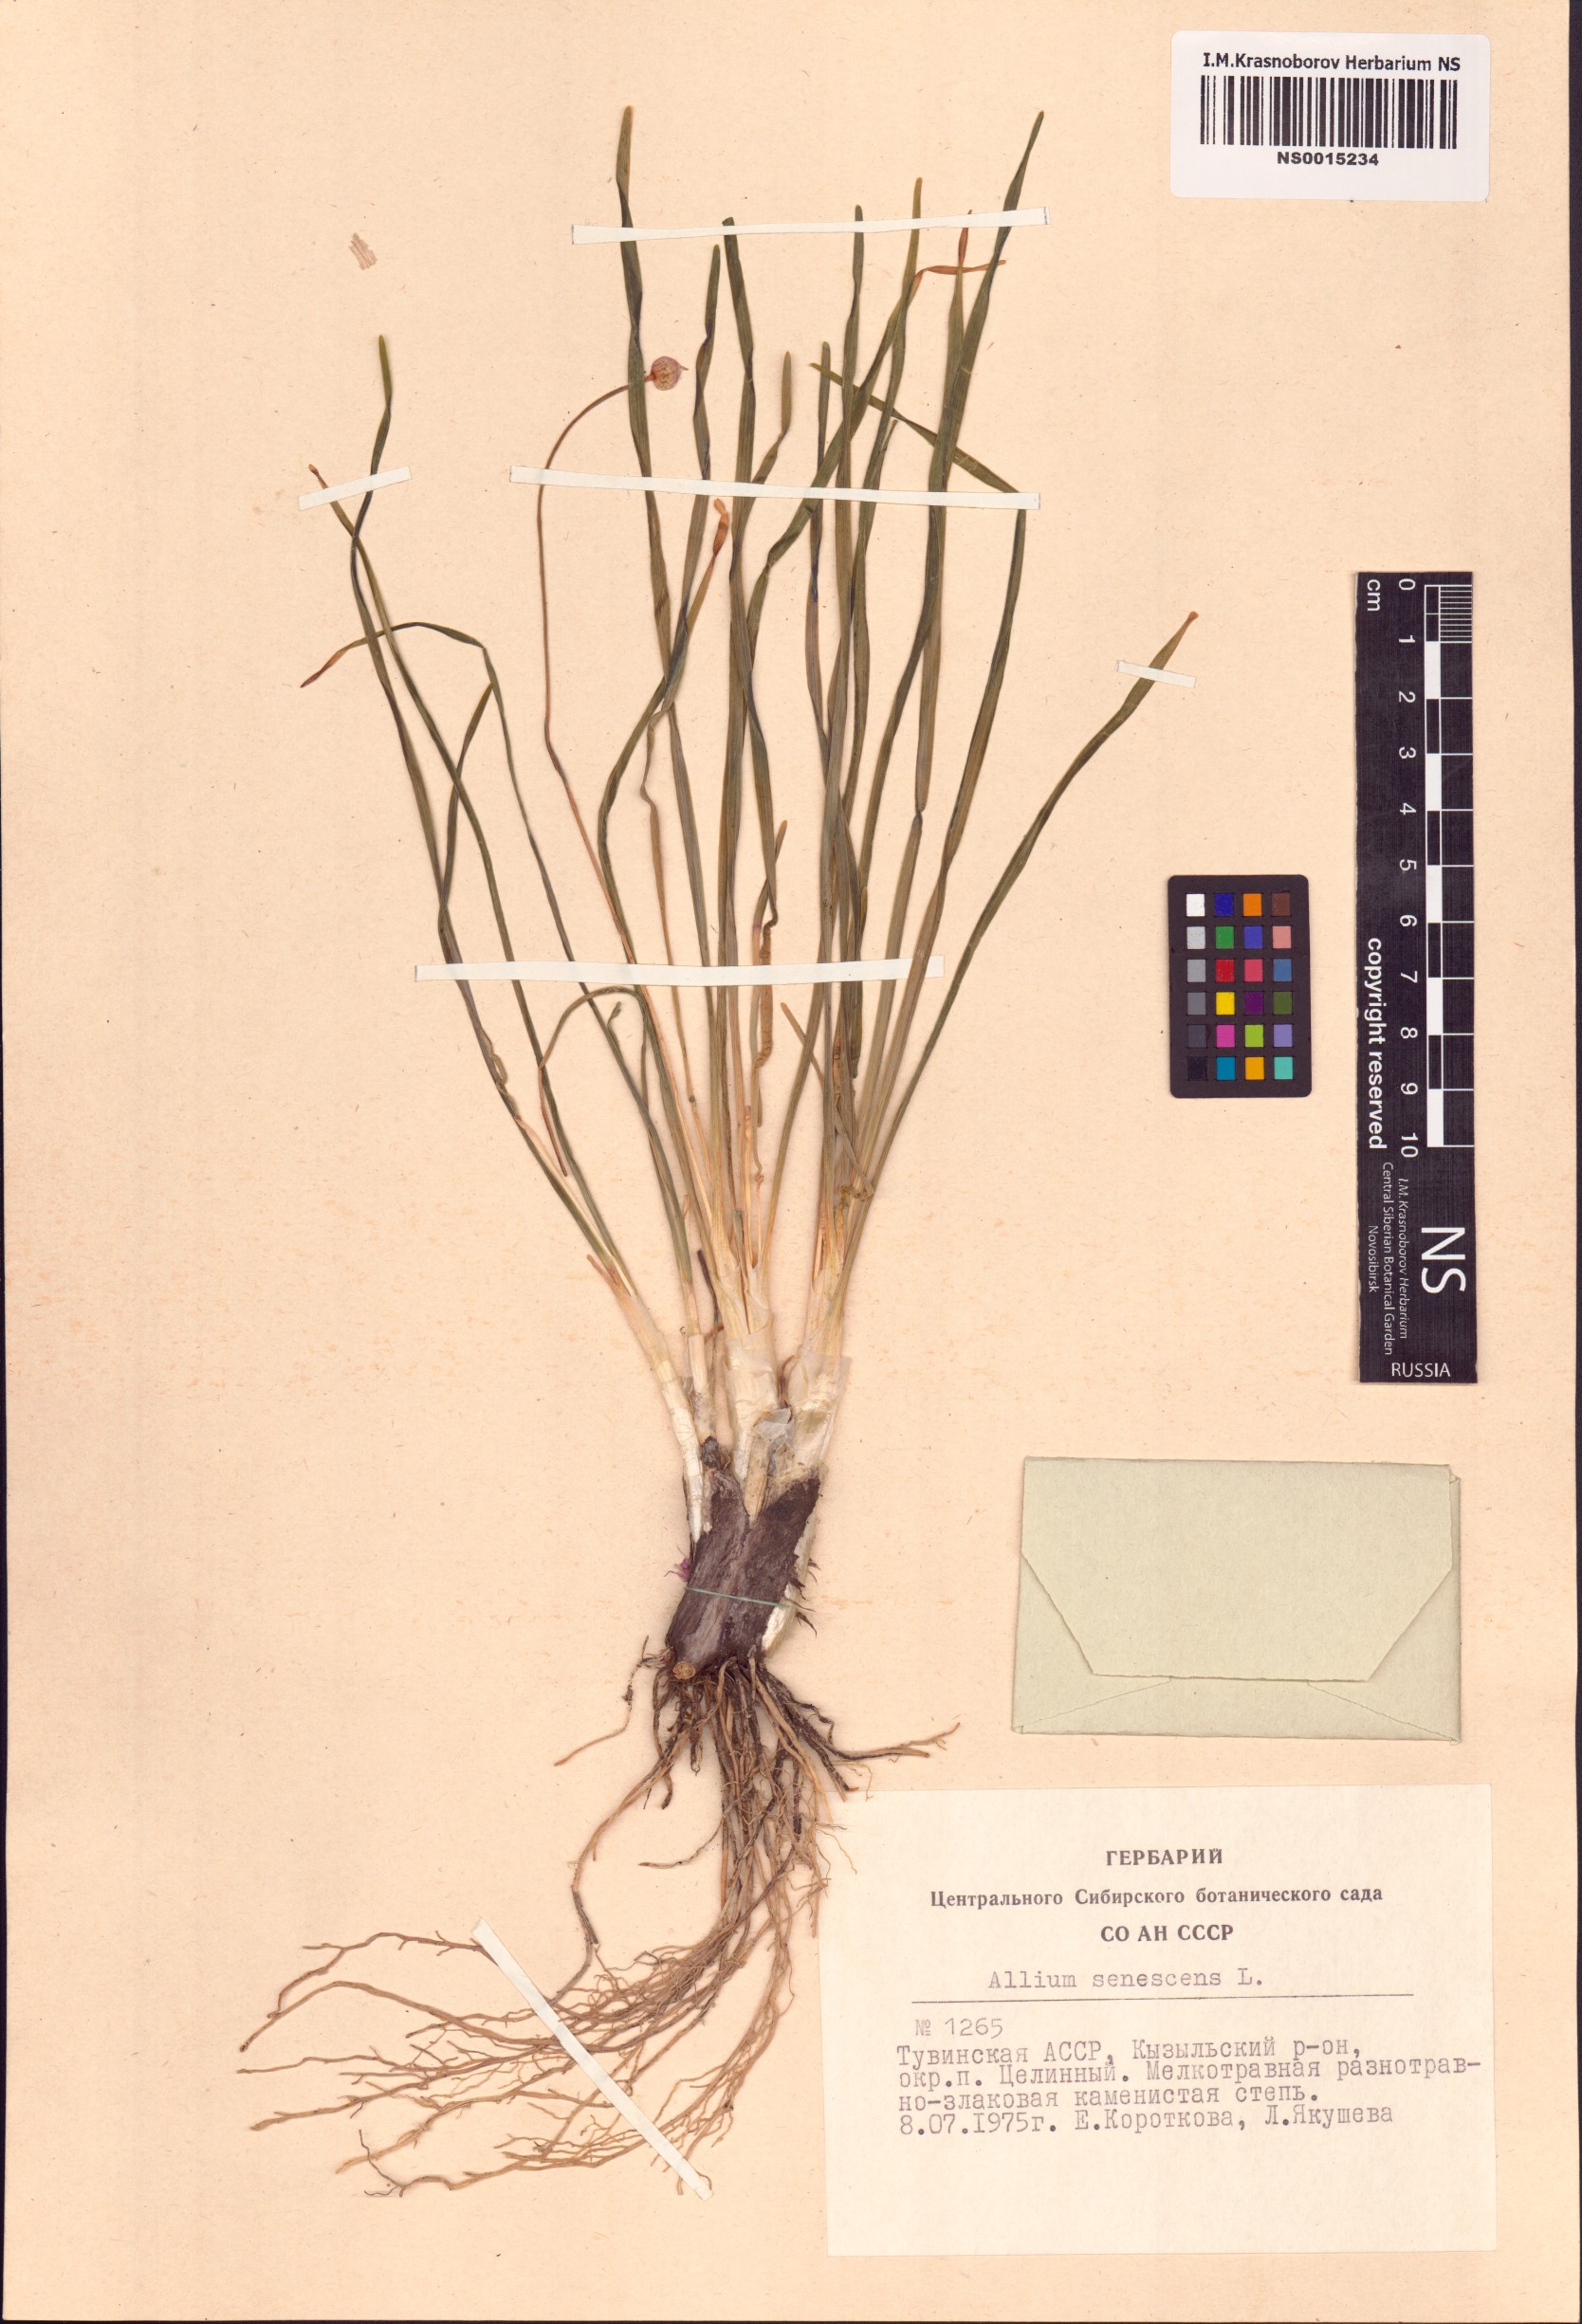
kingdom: Plantae
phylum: Tracheophyta
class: Liliopsida
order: Asparagales
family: Amaryllidaceae
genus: Allium
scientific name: Allium senescens
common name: German garlic
